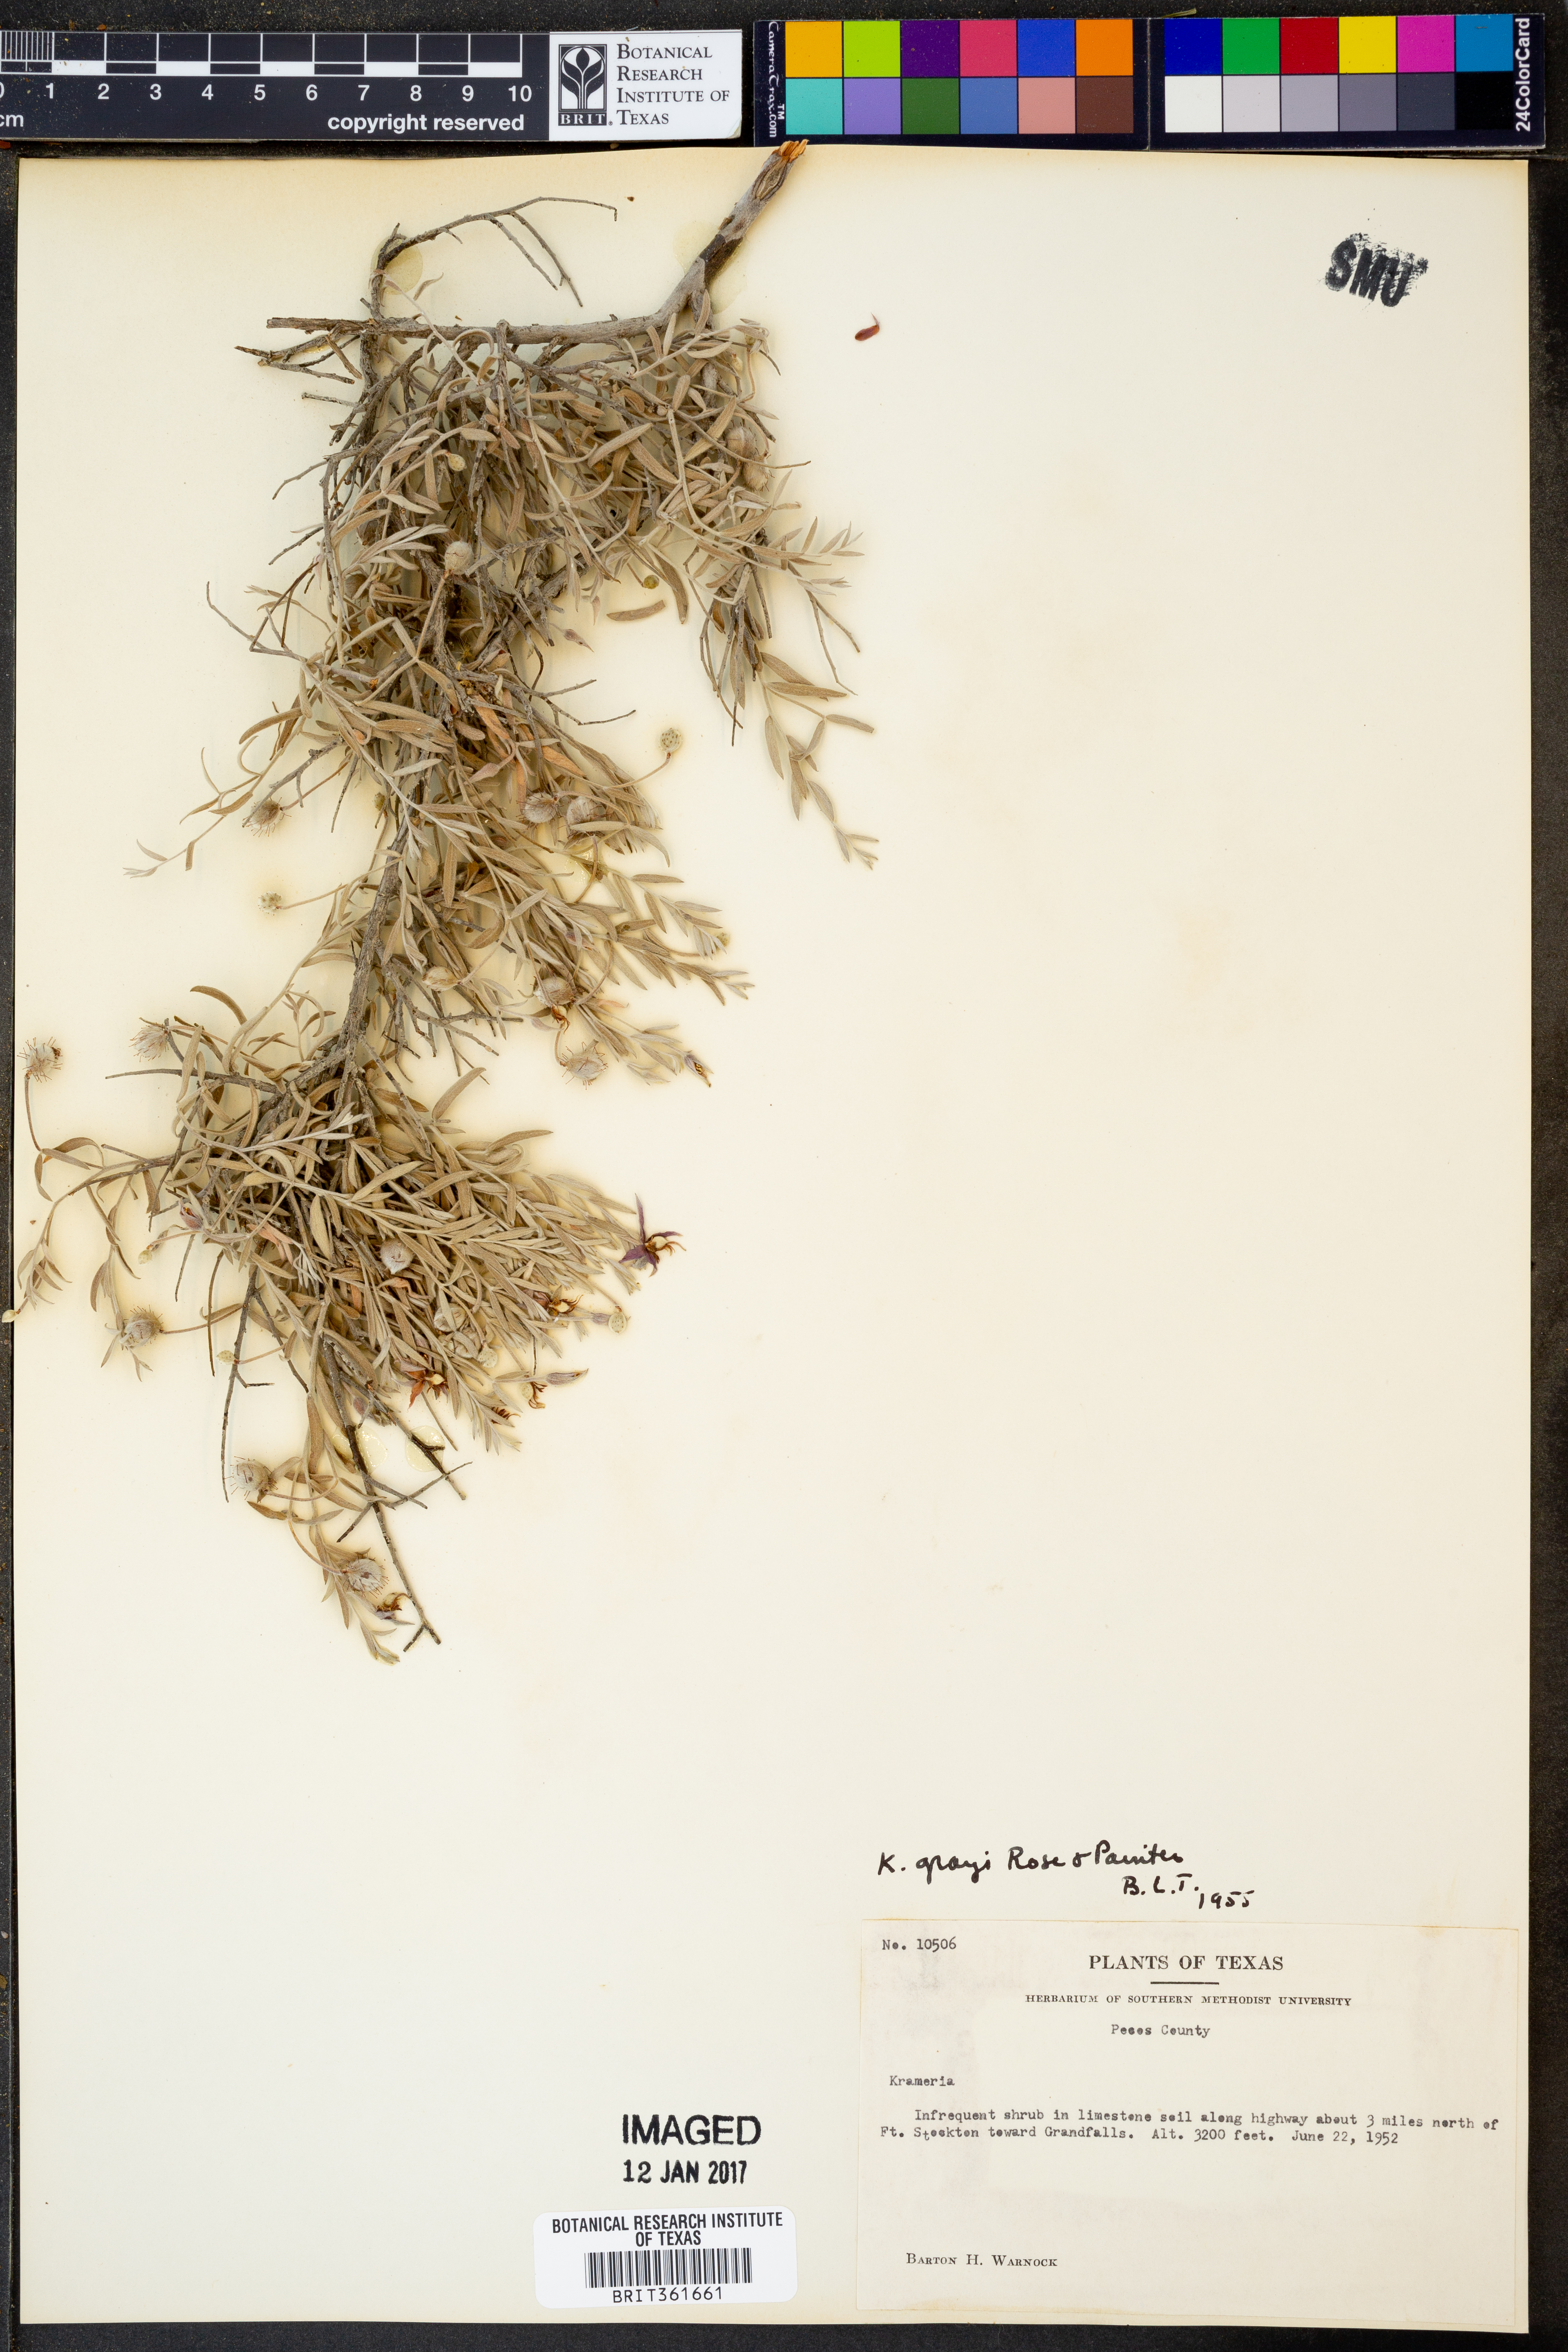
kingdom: Plantae
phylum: Tracheophyta
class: Magnoliopsida
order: Zygophyllales
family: Krameriaceae
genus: Krameria
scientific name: Krameria bicolor
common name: White ratany
